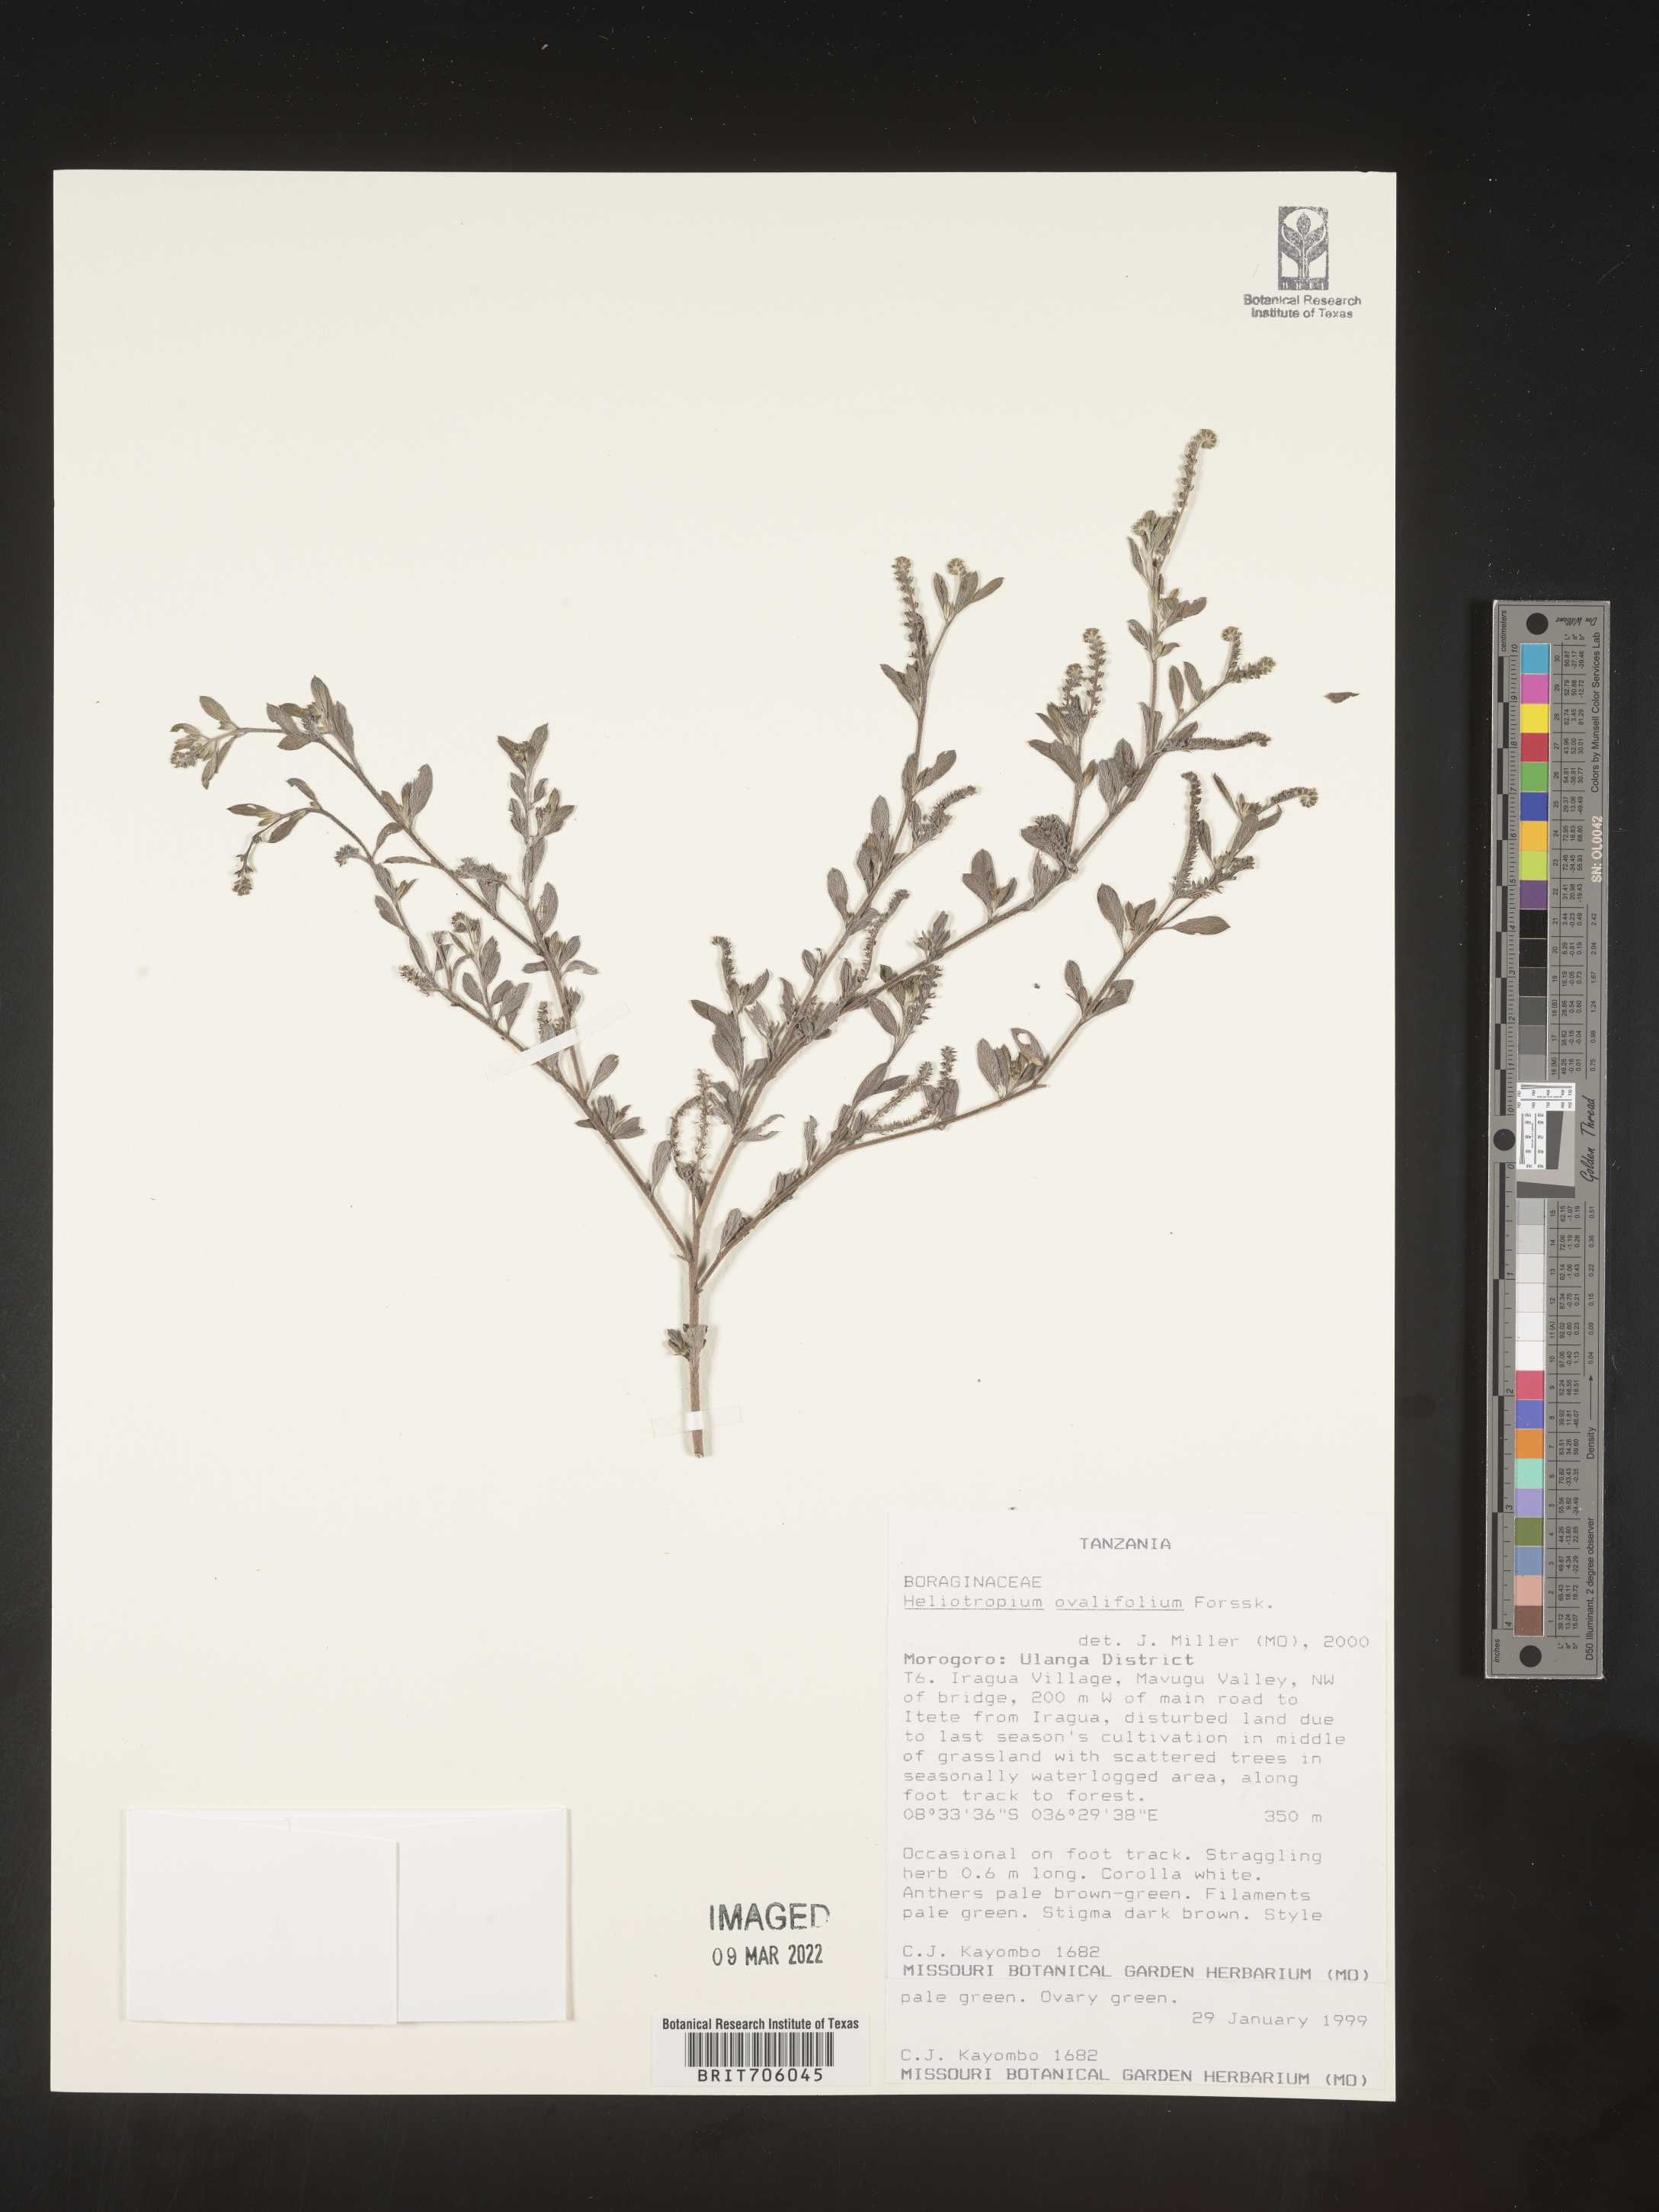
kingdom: Plantae
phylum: Tracheophyta
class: Magnoliopsida
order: Boraginales
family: Heliotropiaceae
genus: Heliotropium
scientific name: Heliotropium
